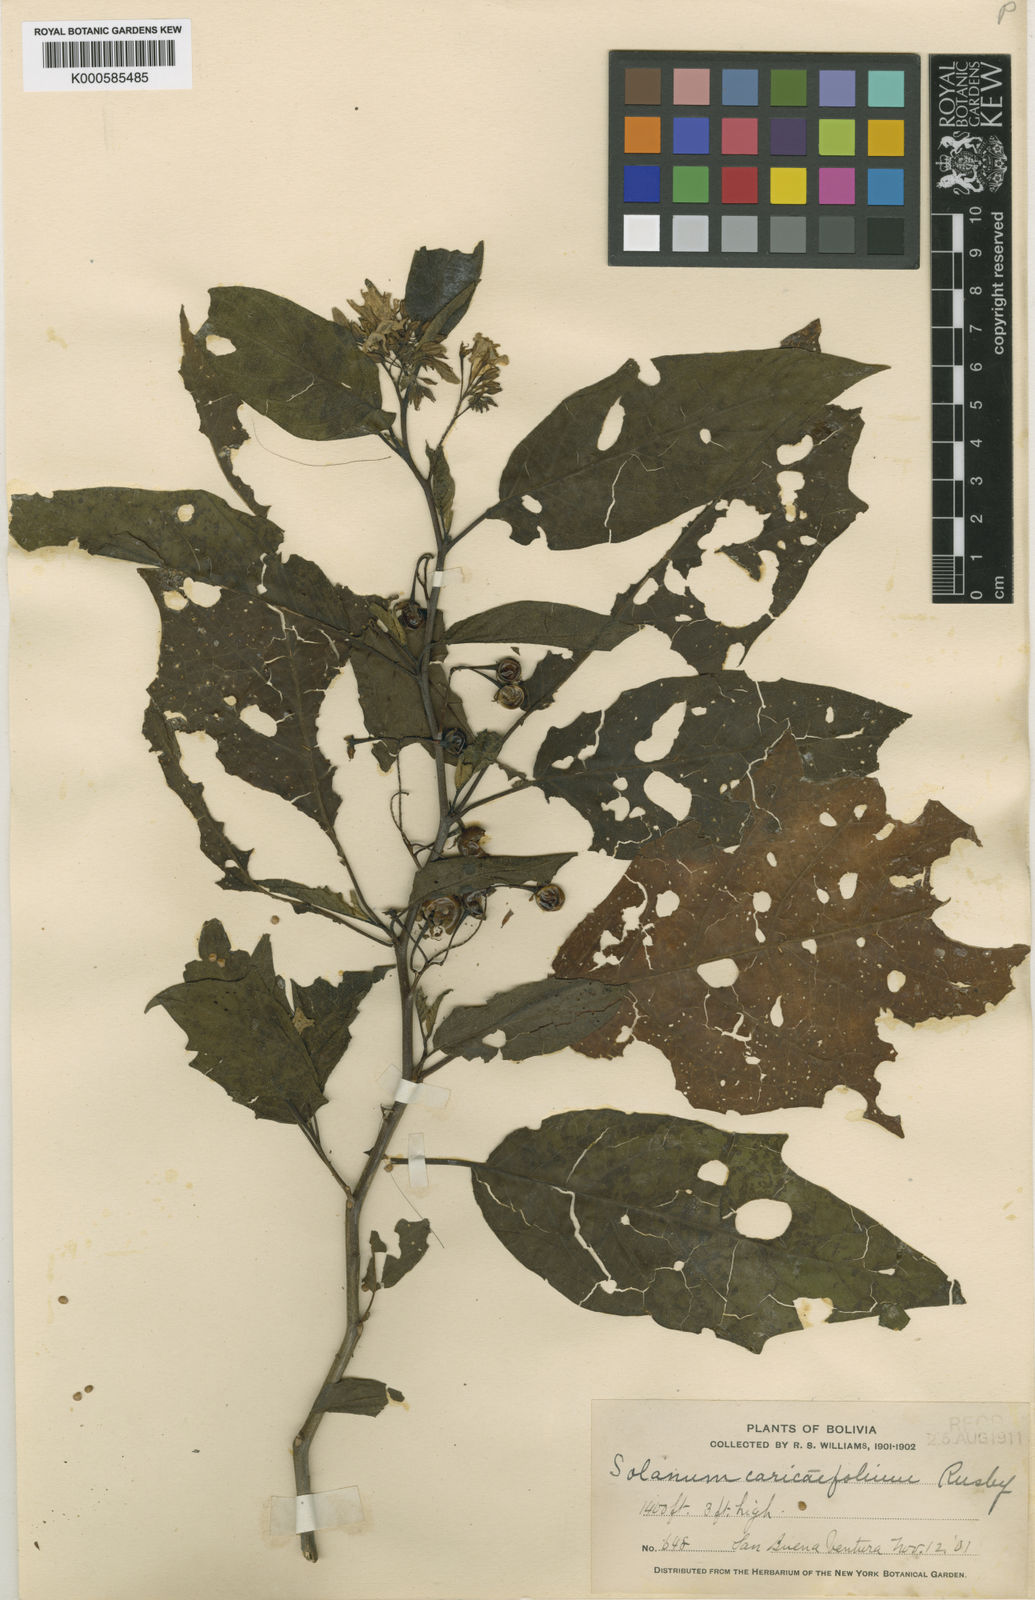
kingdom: Plantae
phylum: Tracheophyta
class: Magnoliopsida
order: Solanales
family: Solanaceae
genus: Solanum
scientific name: Solanum caricaefolium
